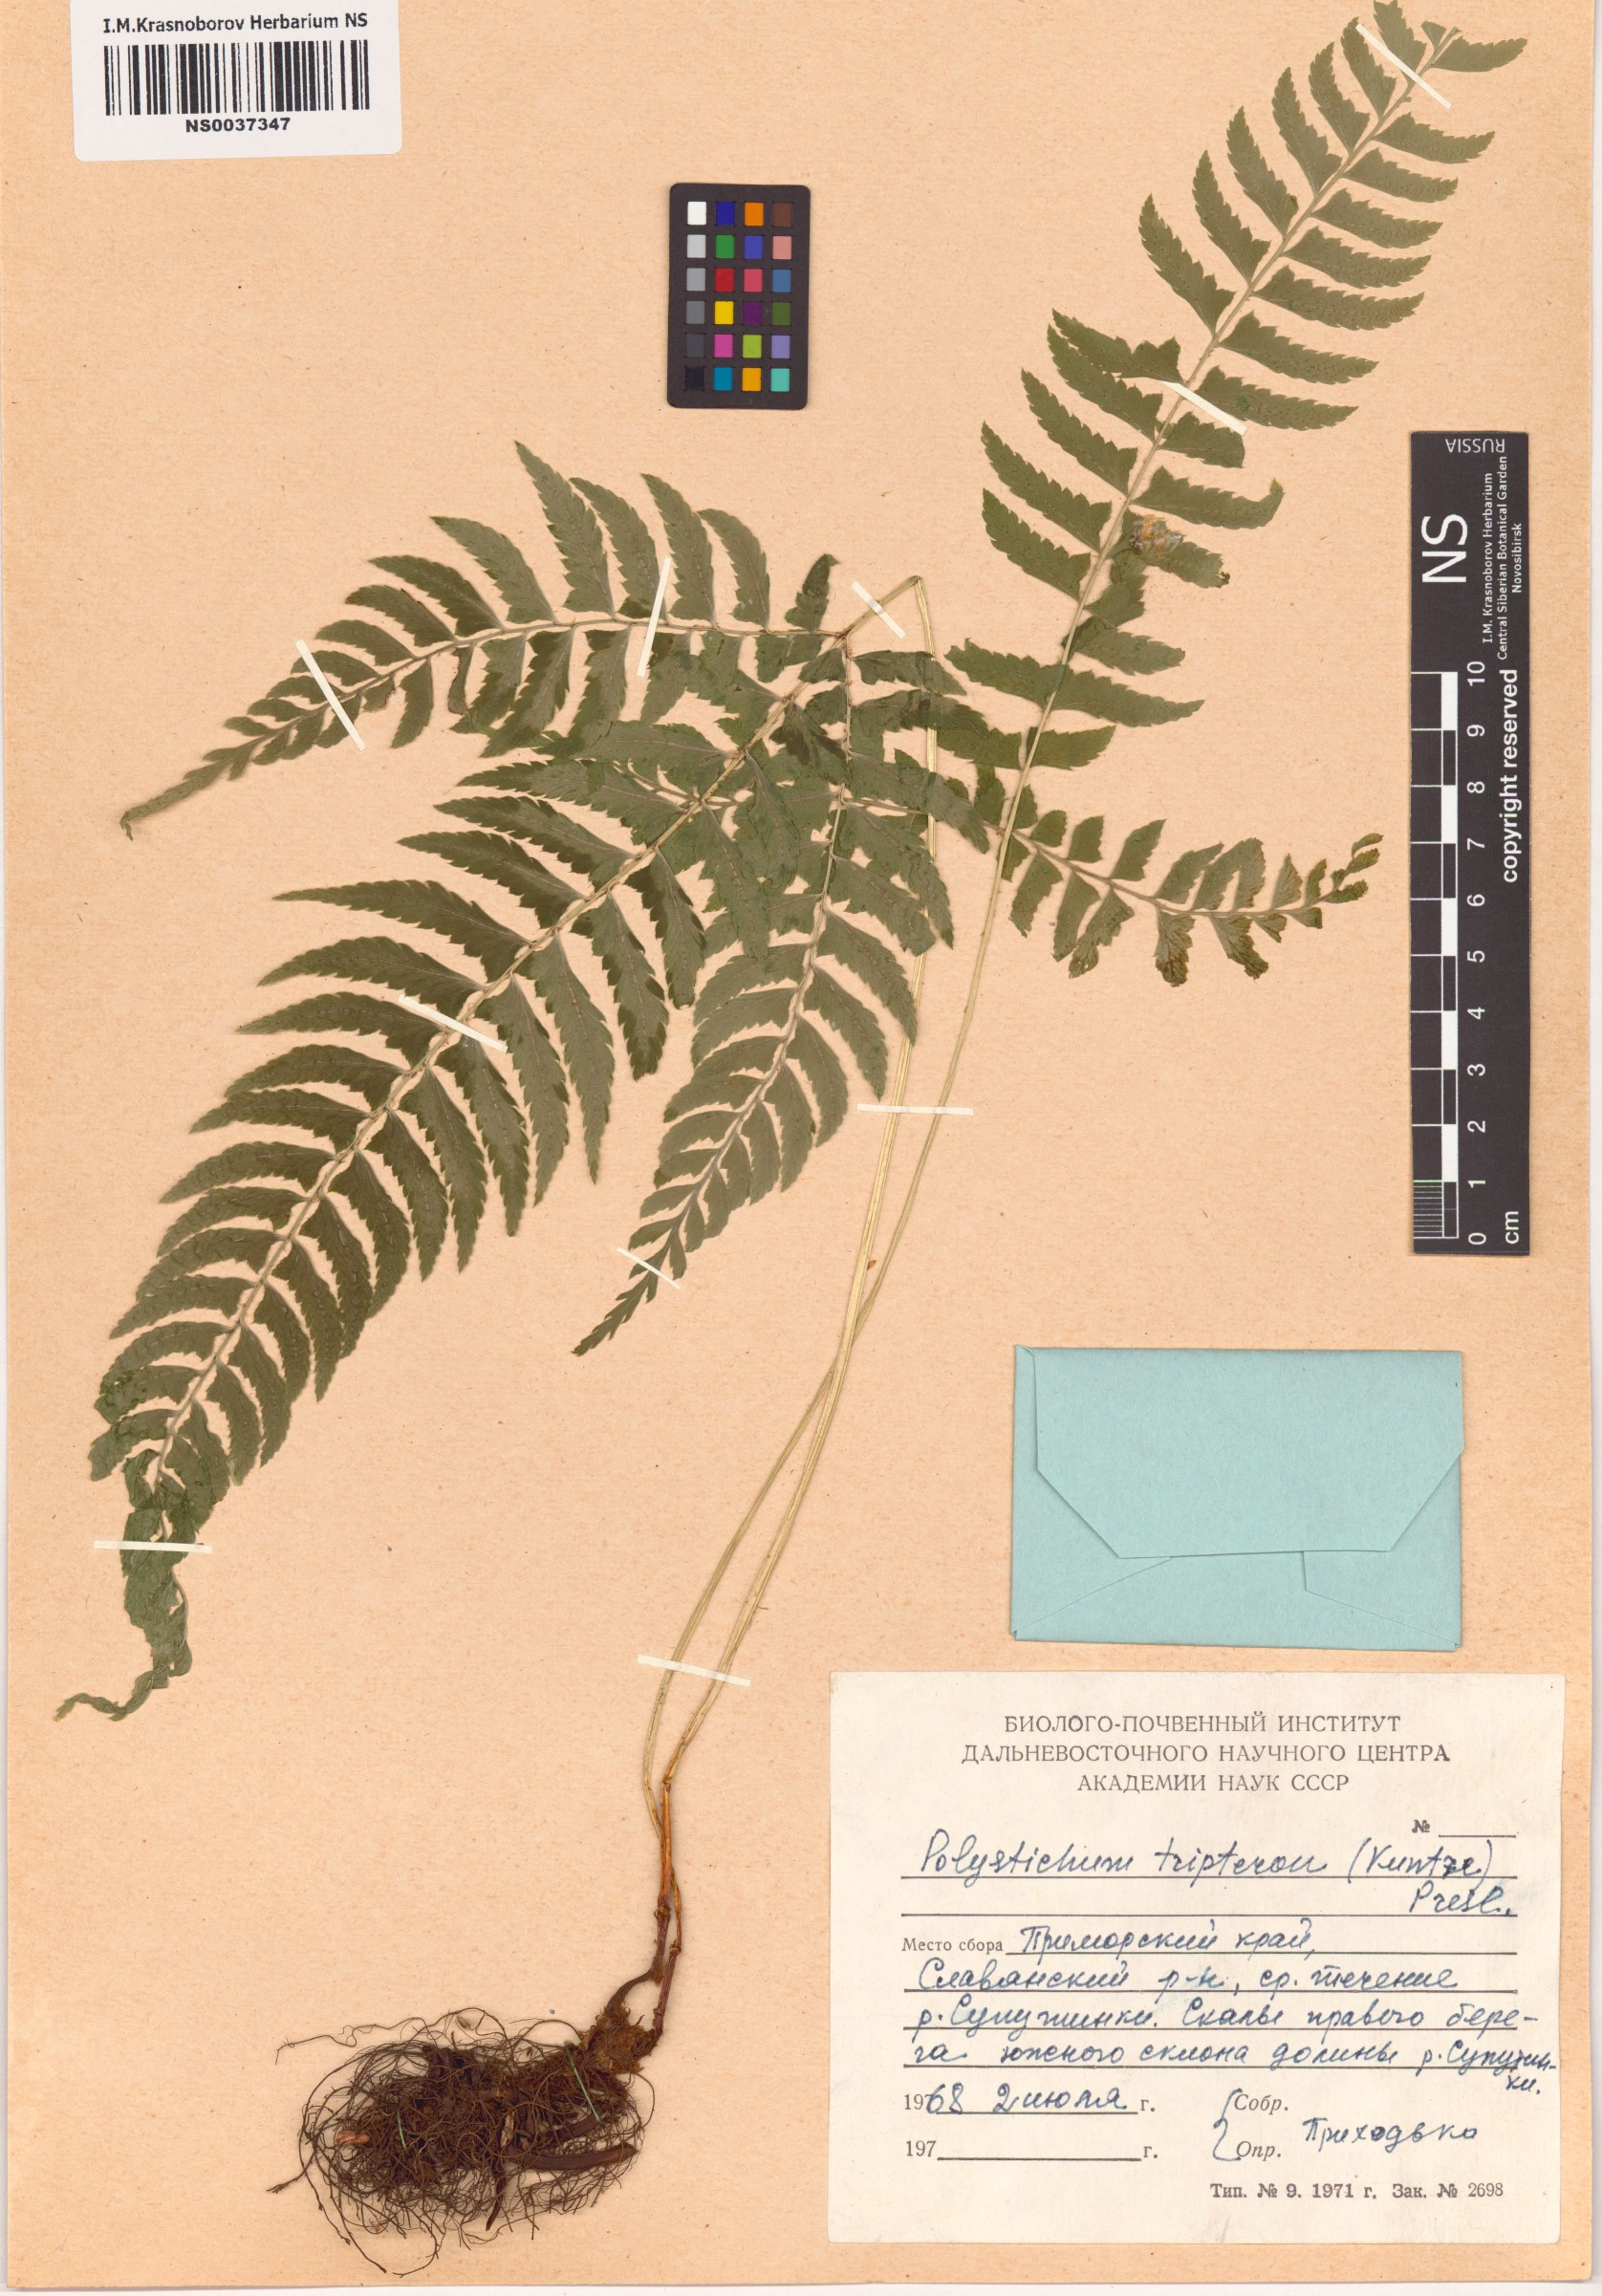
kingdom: Plantae
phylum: Tracheophyta
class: Polypodiopsida
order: Polypodiales
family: Dryopteridaceae
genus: Polystichum
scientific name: Polystichum tripteron
